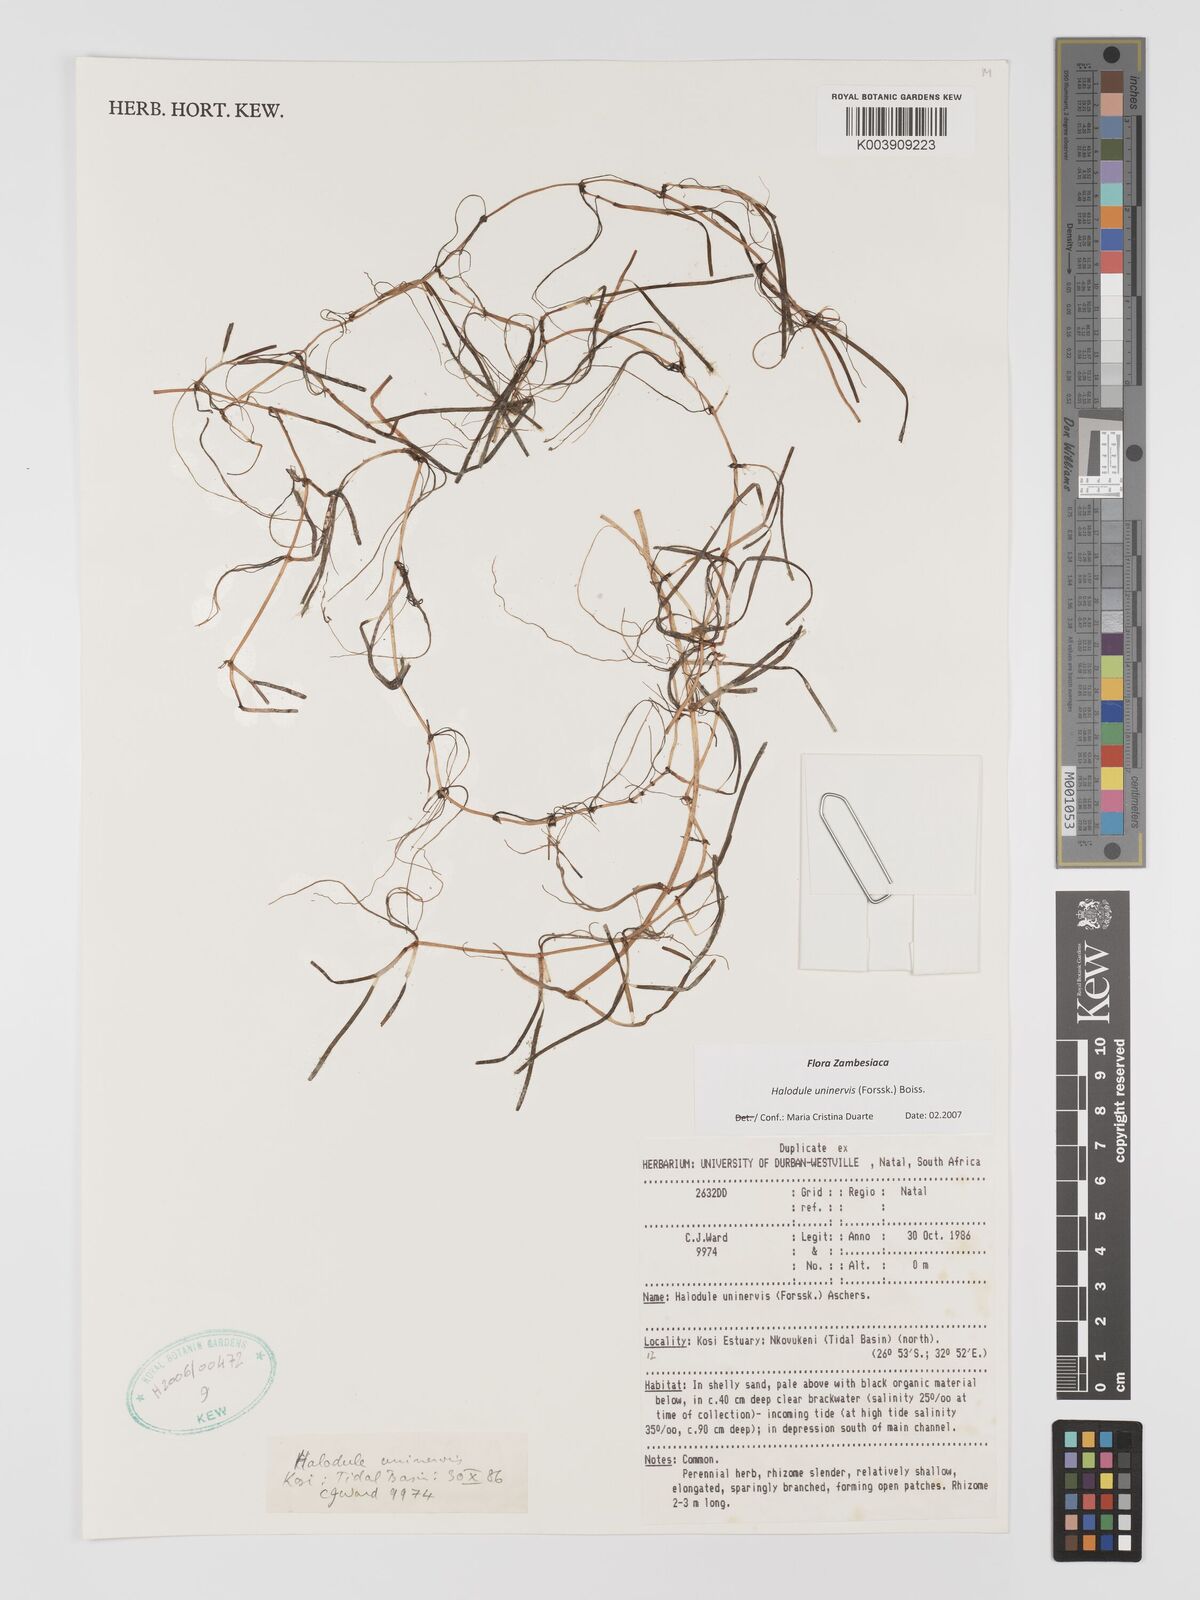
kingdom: Plantae
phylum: Tracheophyta
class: Liliopsida
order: Alismatales
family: Cymodoceaceae
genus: Halodule
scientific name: Halodule uninervis
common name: Narrowleaf seagrass
